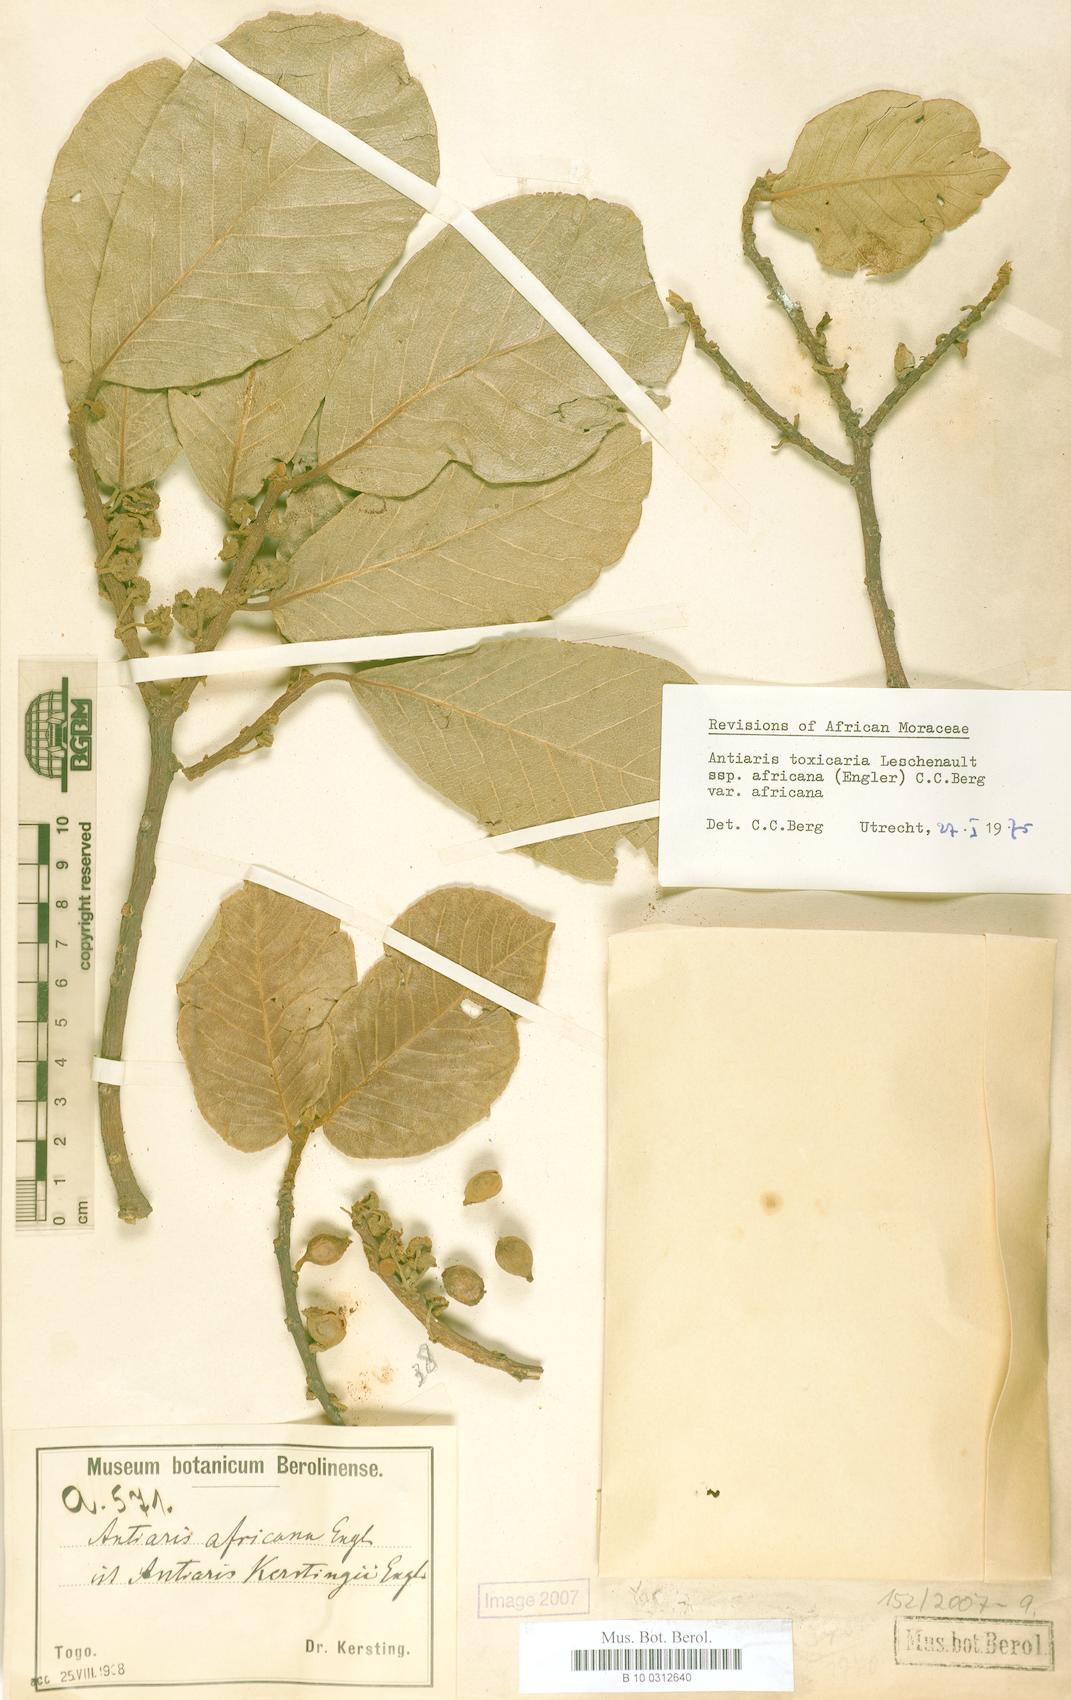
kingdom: Plantae
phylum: Tracheophyta
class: Magnoliopsida
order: Rosales
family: Moraceae
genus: Antiaris
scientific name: Antiaris toxicaria
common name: Sackingtree
